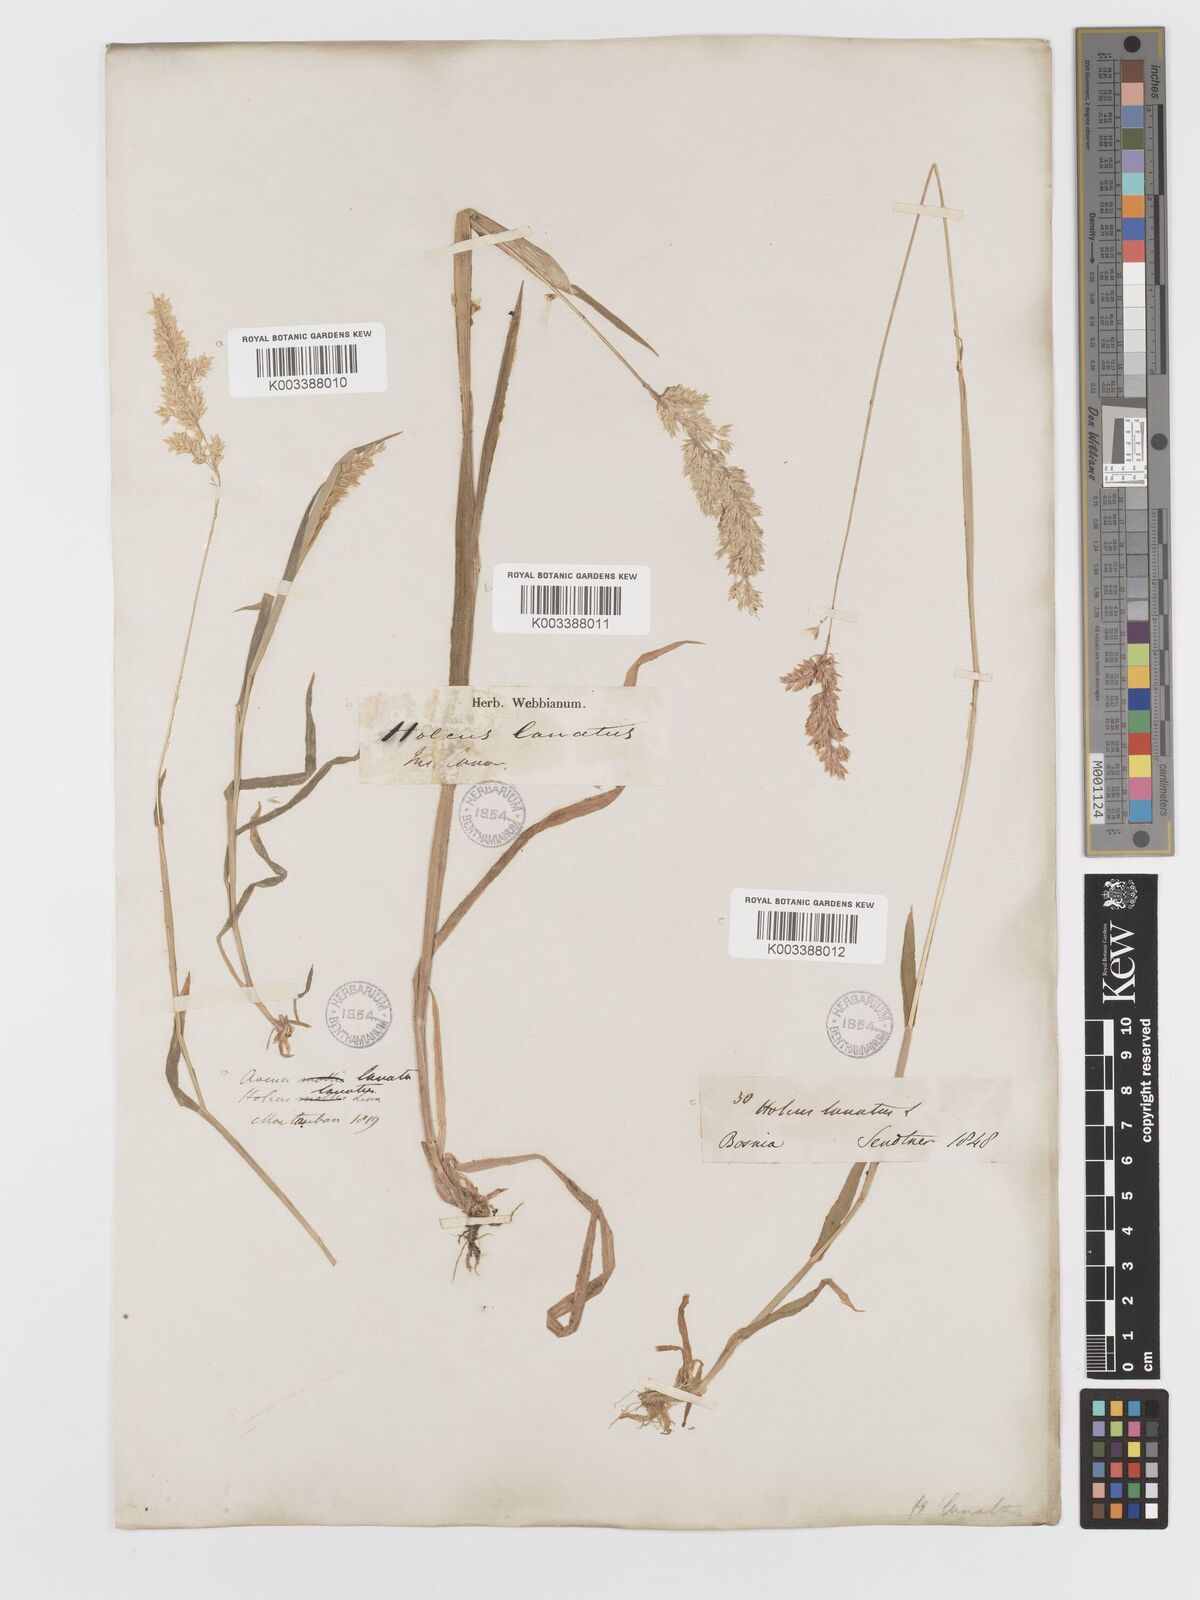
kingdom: Plantae
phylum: Tracheophyta
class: Liliopsida
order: Poales
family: Poaceae
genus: Holcus
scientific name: Holcus lanatus
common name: Yorkshire-fog
